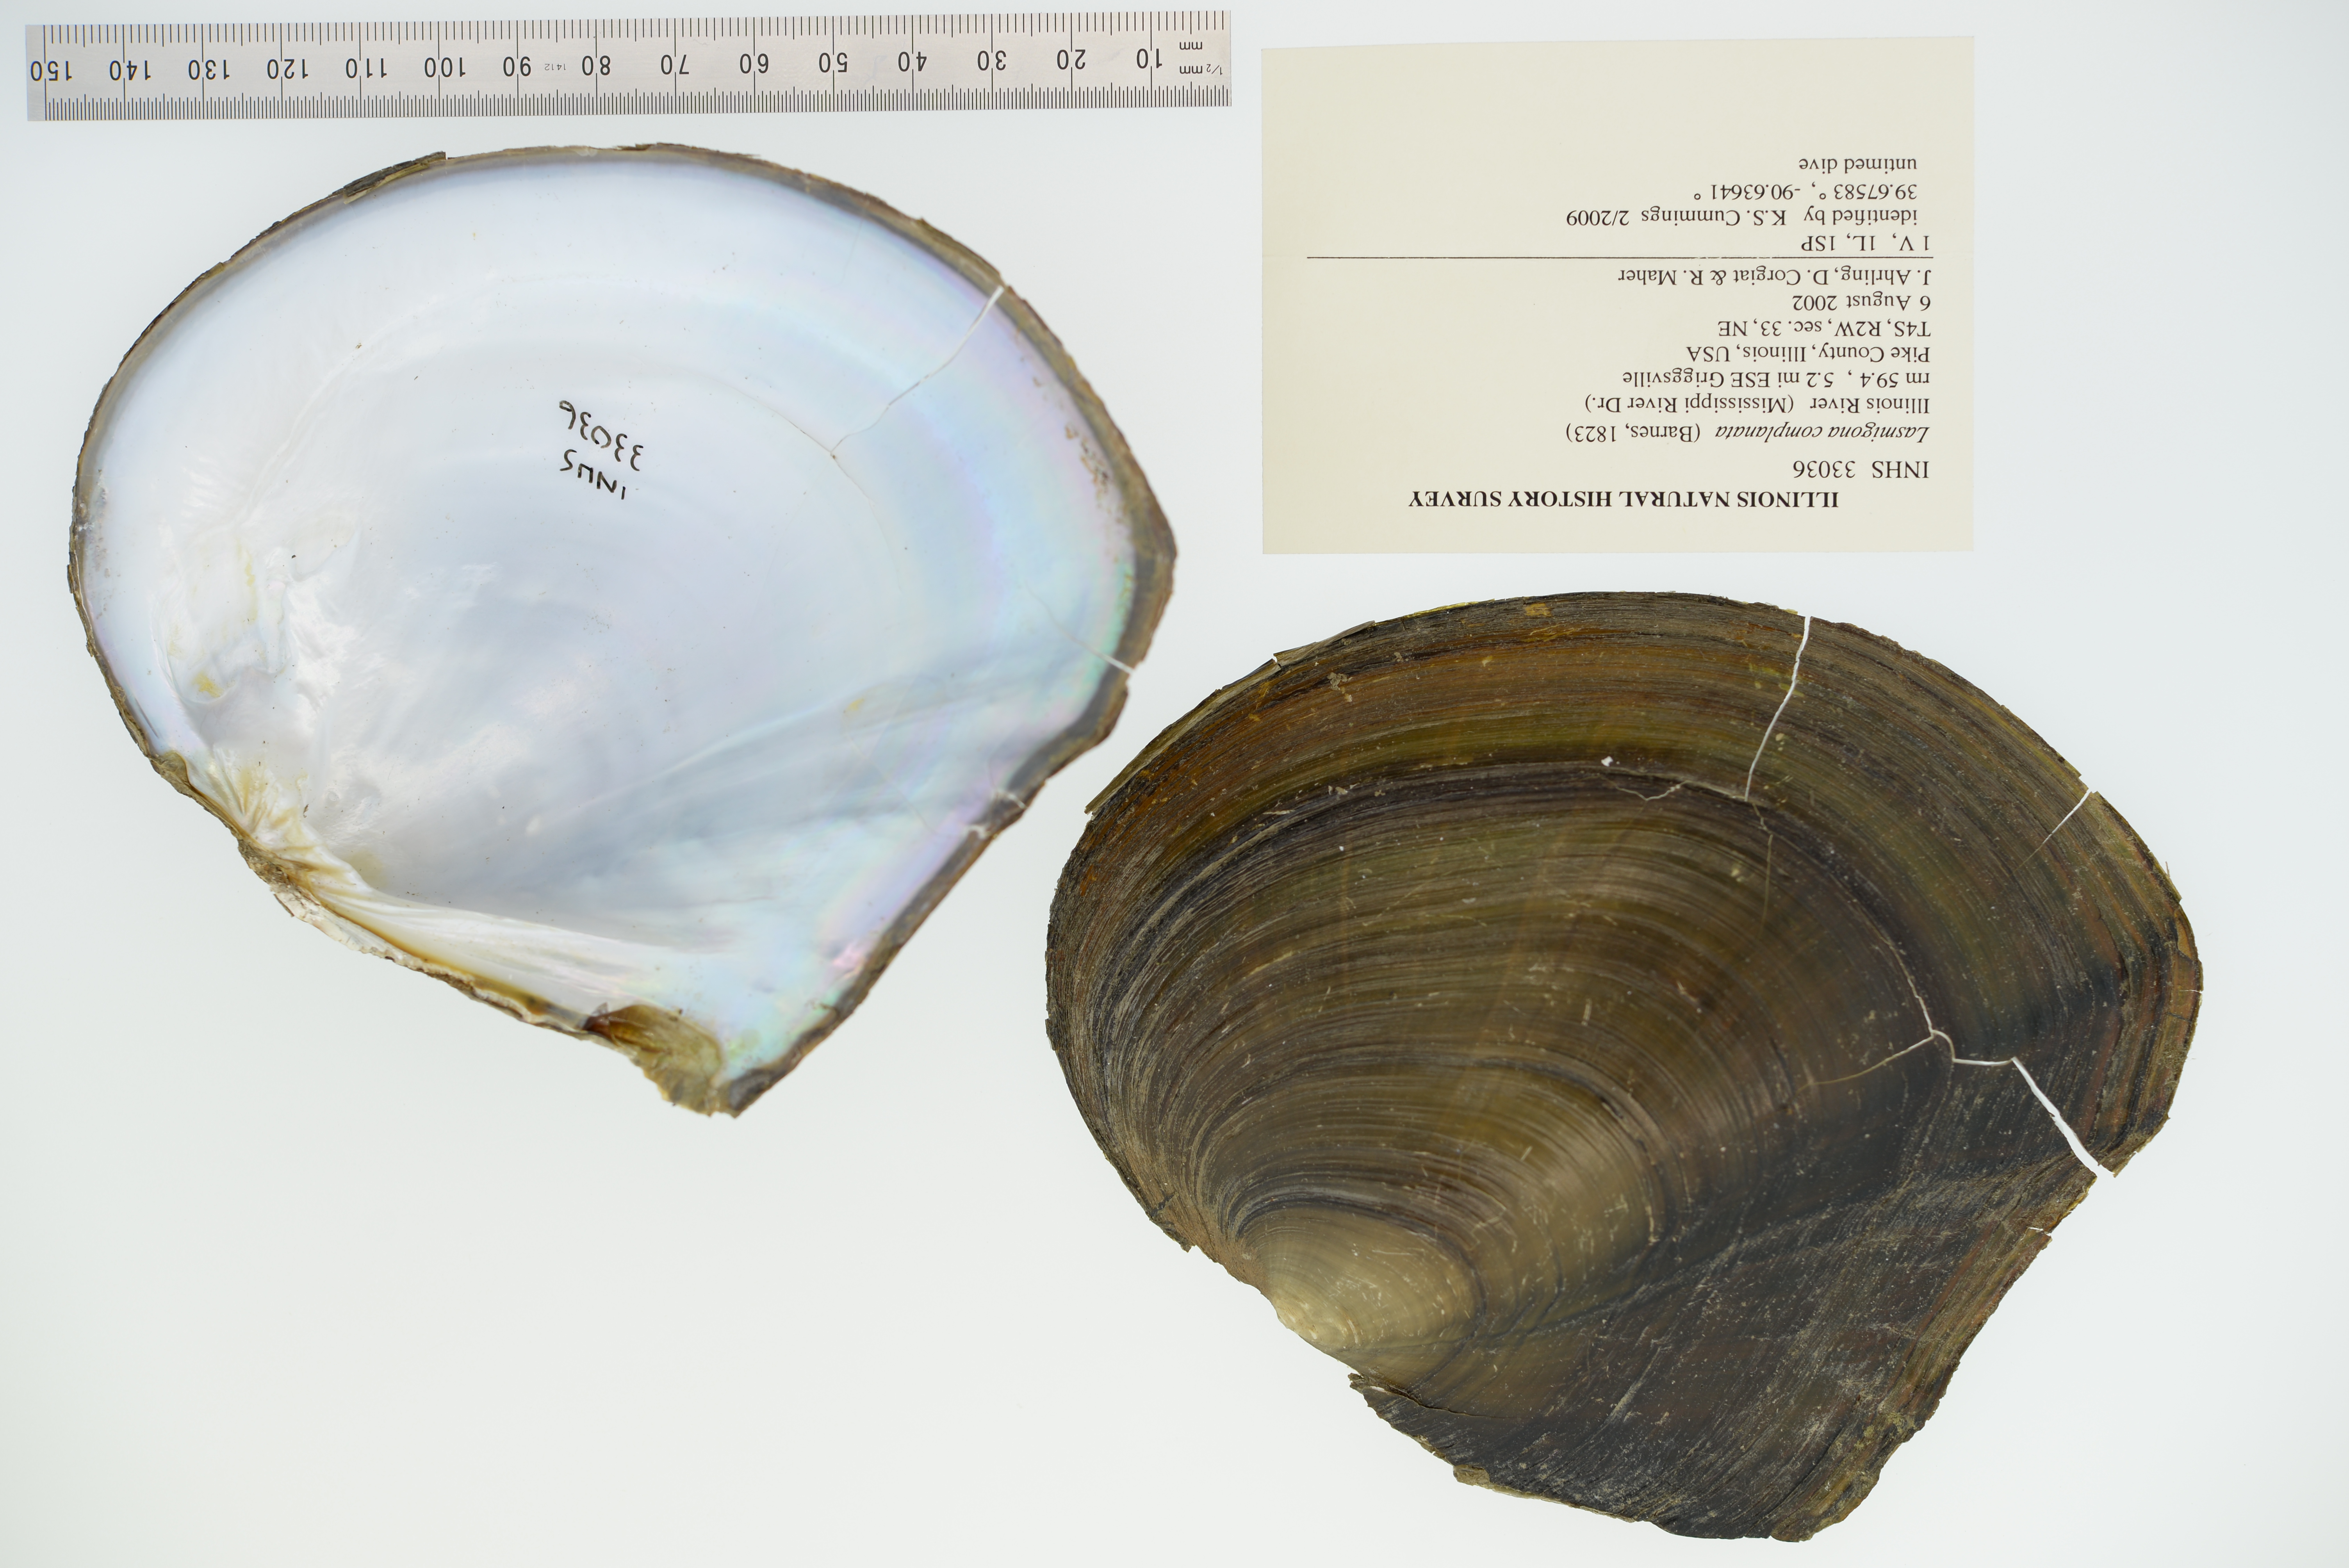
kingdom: Animalia
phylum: Mollusca
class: Bivalvia
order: Unionida
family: Unionidae
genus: Lasmigona
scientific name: Lasmigona complanata
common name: White heelsplitter
